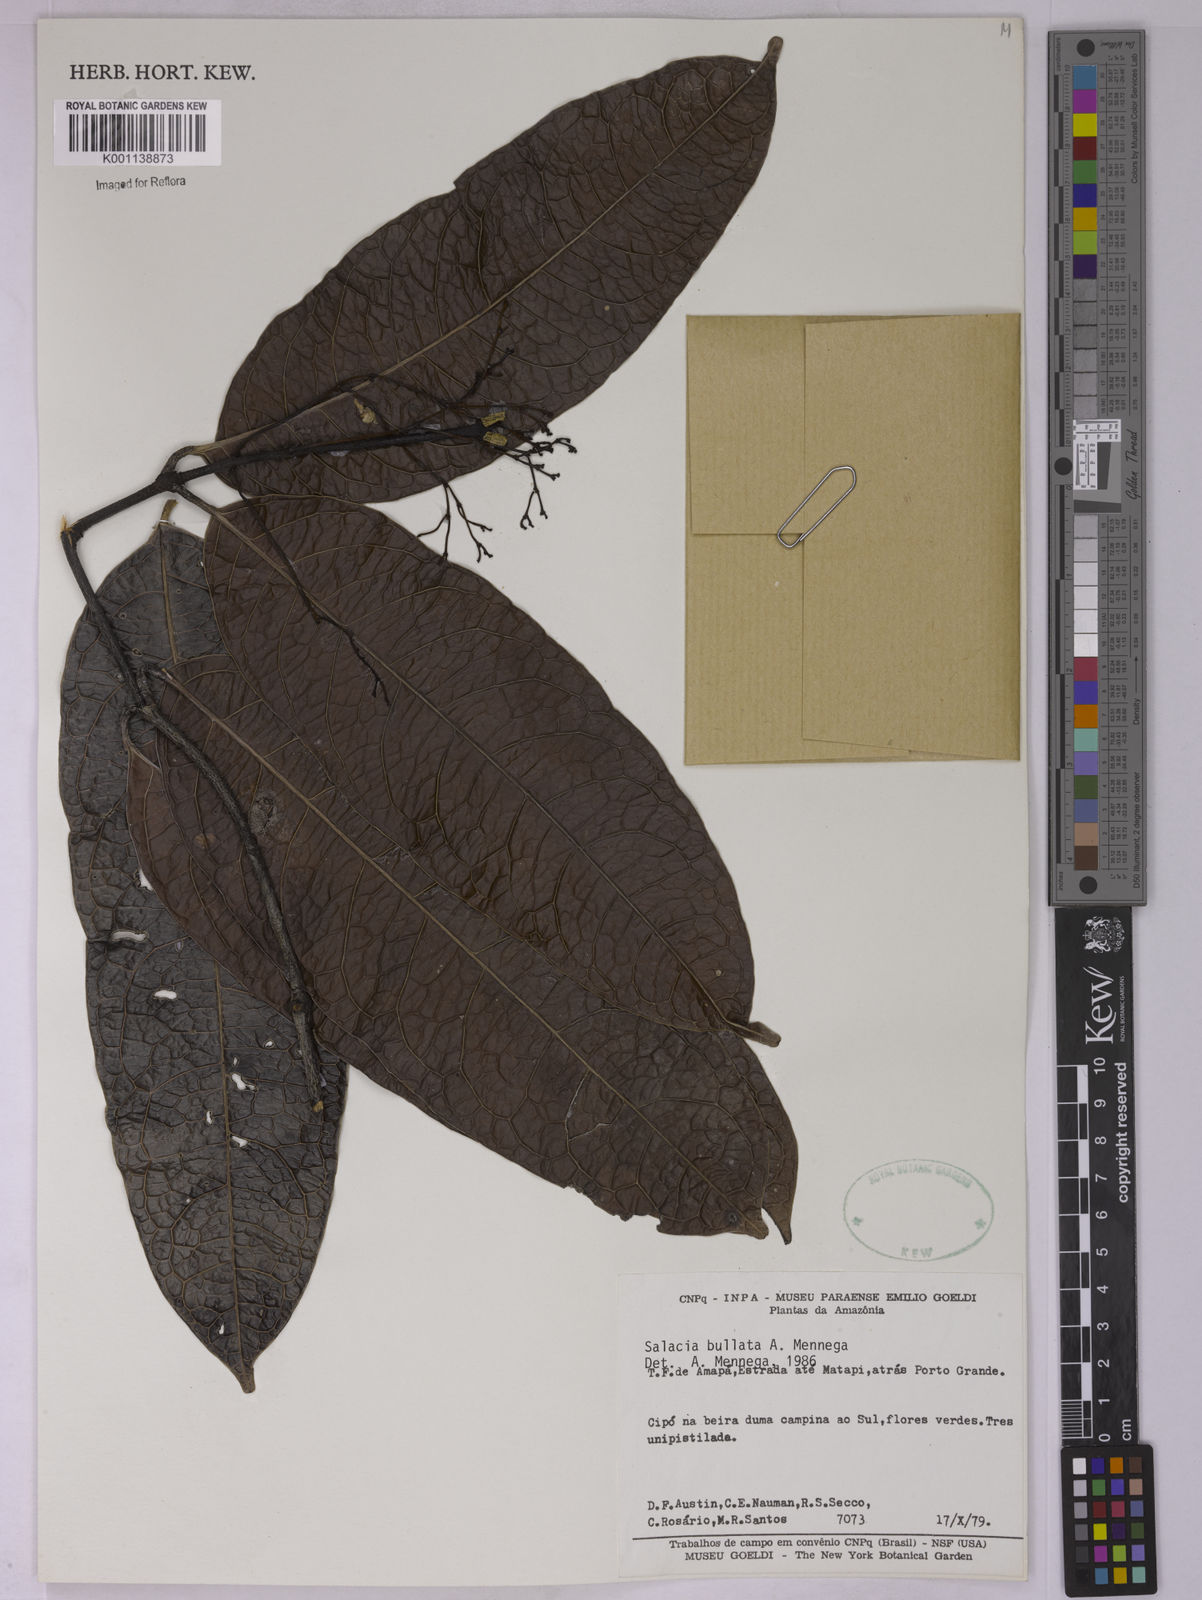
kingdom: Plantae
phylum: Tracheophyta
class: Magnoliopsida
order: Celastrales
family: Celastraceae
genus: Salacia
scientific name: Salacia amplectens
